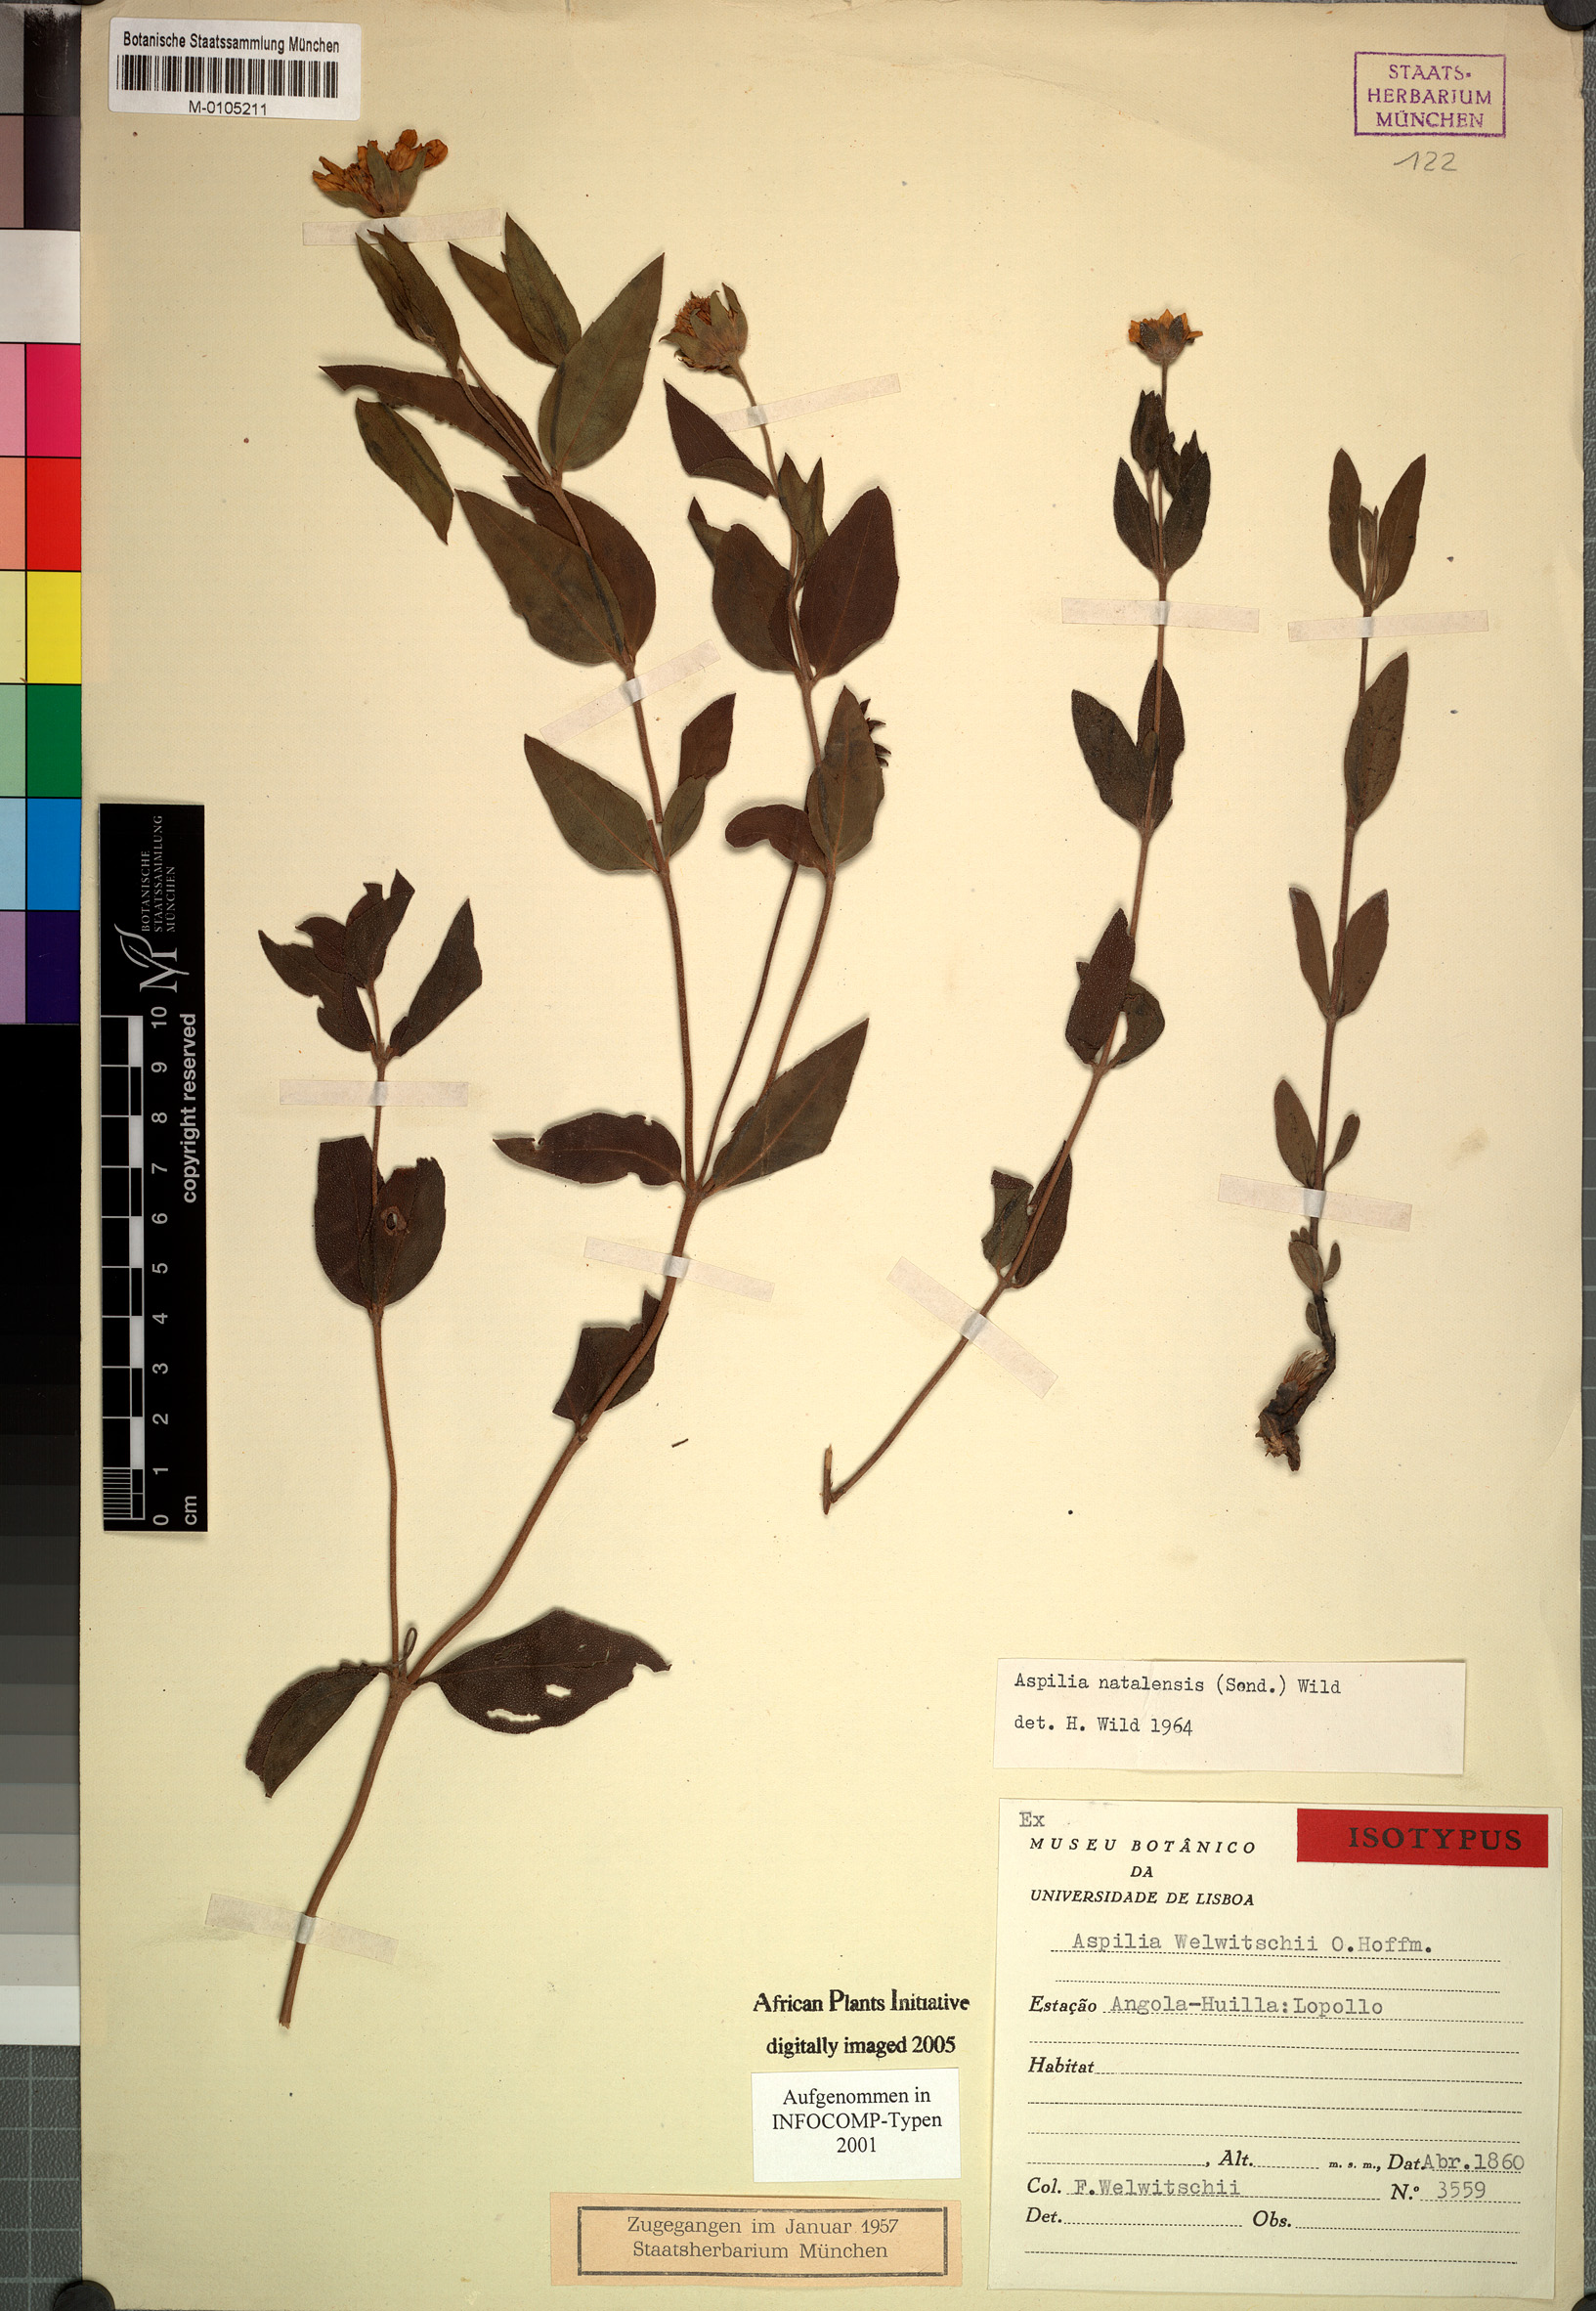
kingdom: Plantae
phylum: Tracheophyta
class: Magnoliopsida
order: Asterales
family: Asteraceae
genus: Aspilia
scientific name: Aspilia natalensis
